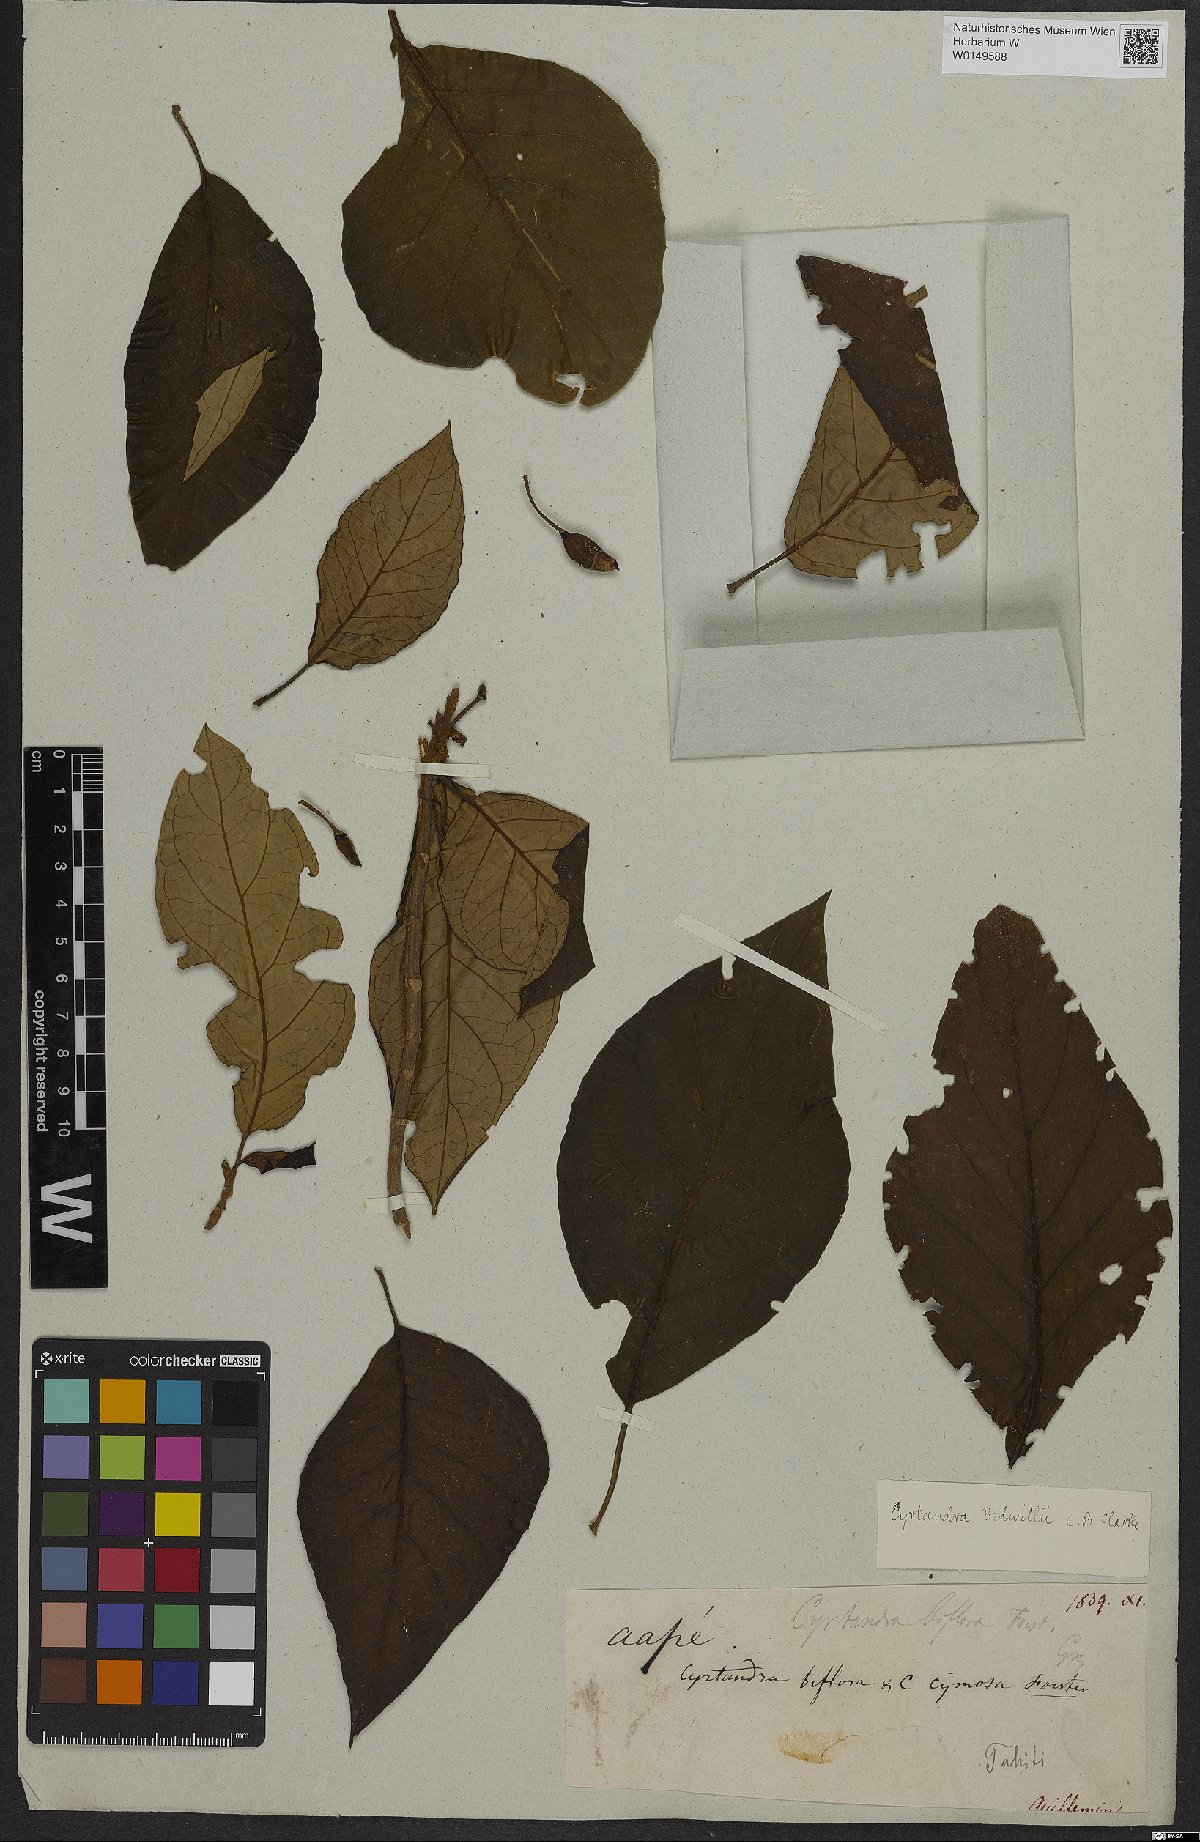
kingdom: Plantae
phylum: Tracheophyta
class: Magnoliopsida
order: Lamiales
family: Gesneriaceae
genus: Cyrtandra
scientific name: Cyrtandra
